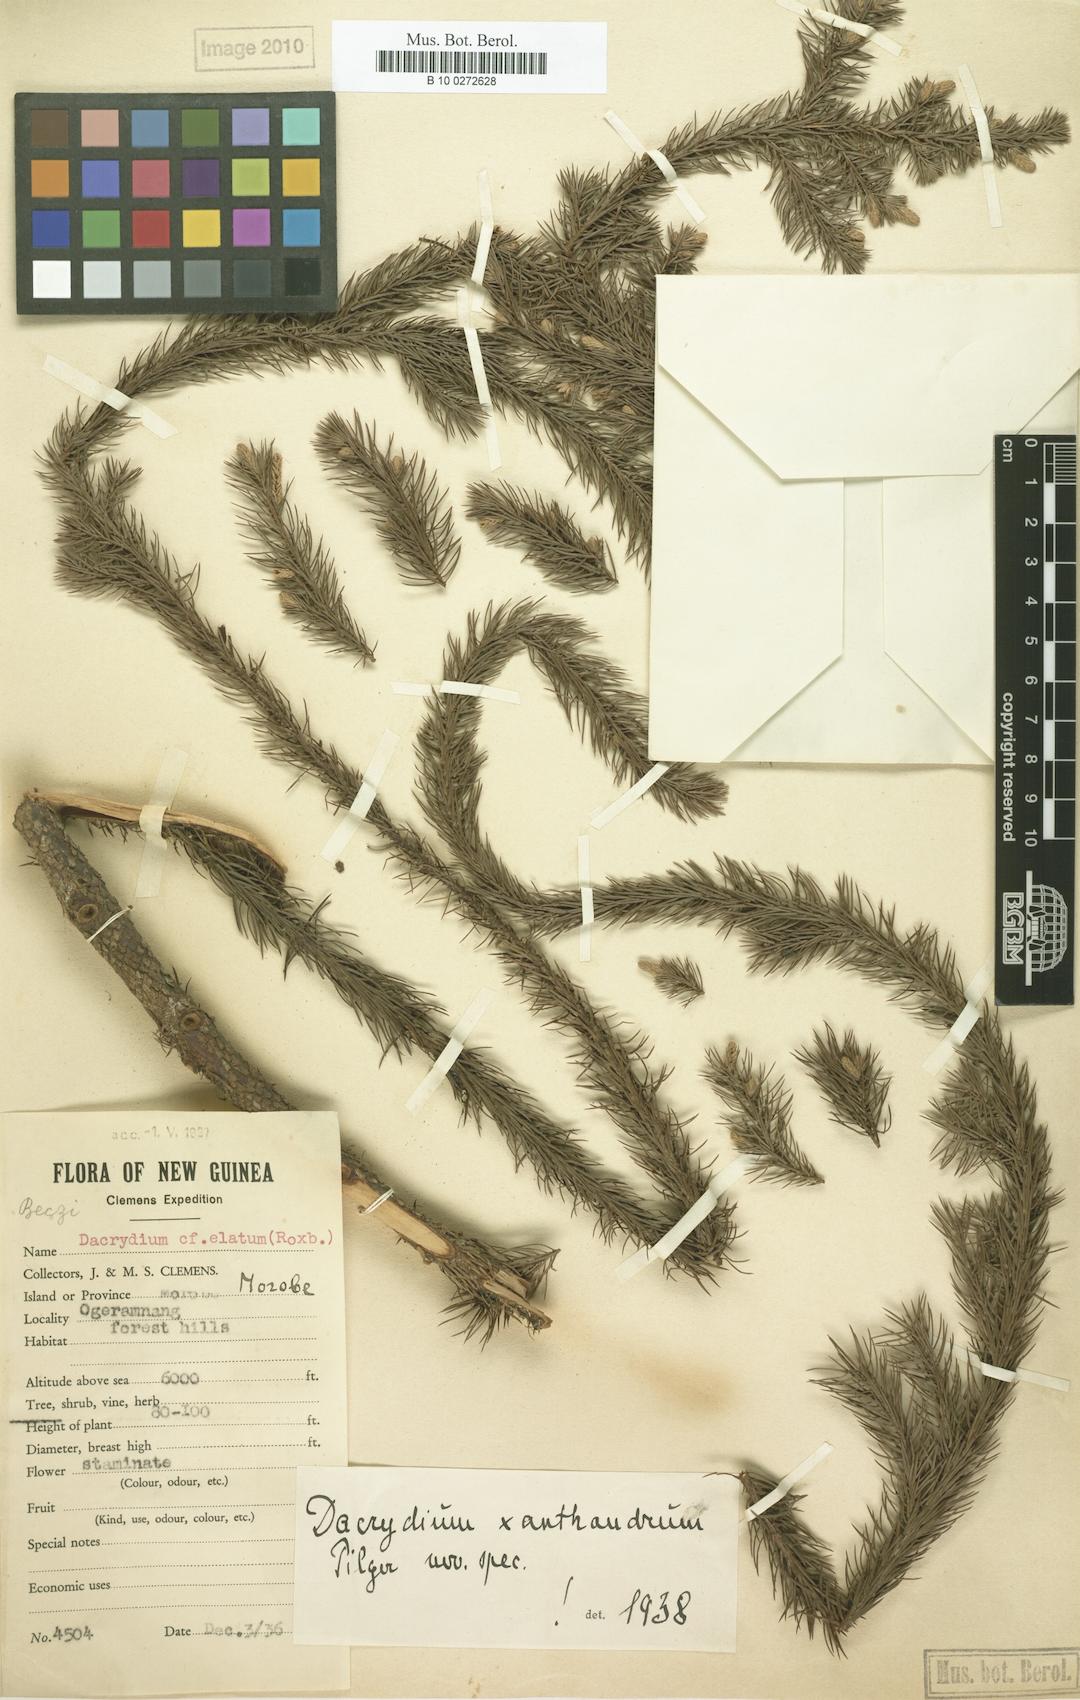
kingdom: Plantae
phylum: Tracheophyta
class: Pinopsida
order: Pinales
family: Podocarpaceae
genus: Dacrydium
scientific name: Dacrydium xanthandrum
